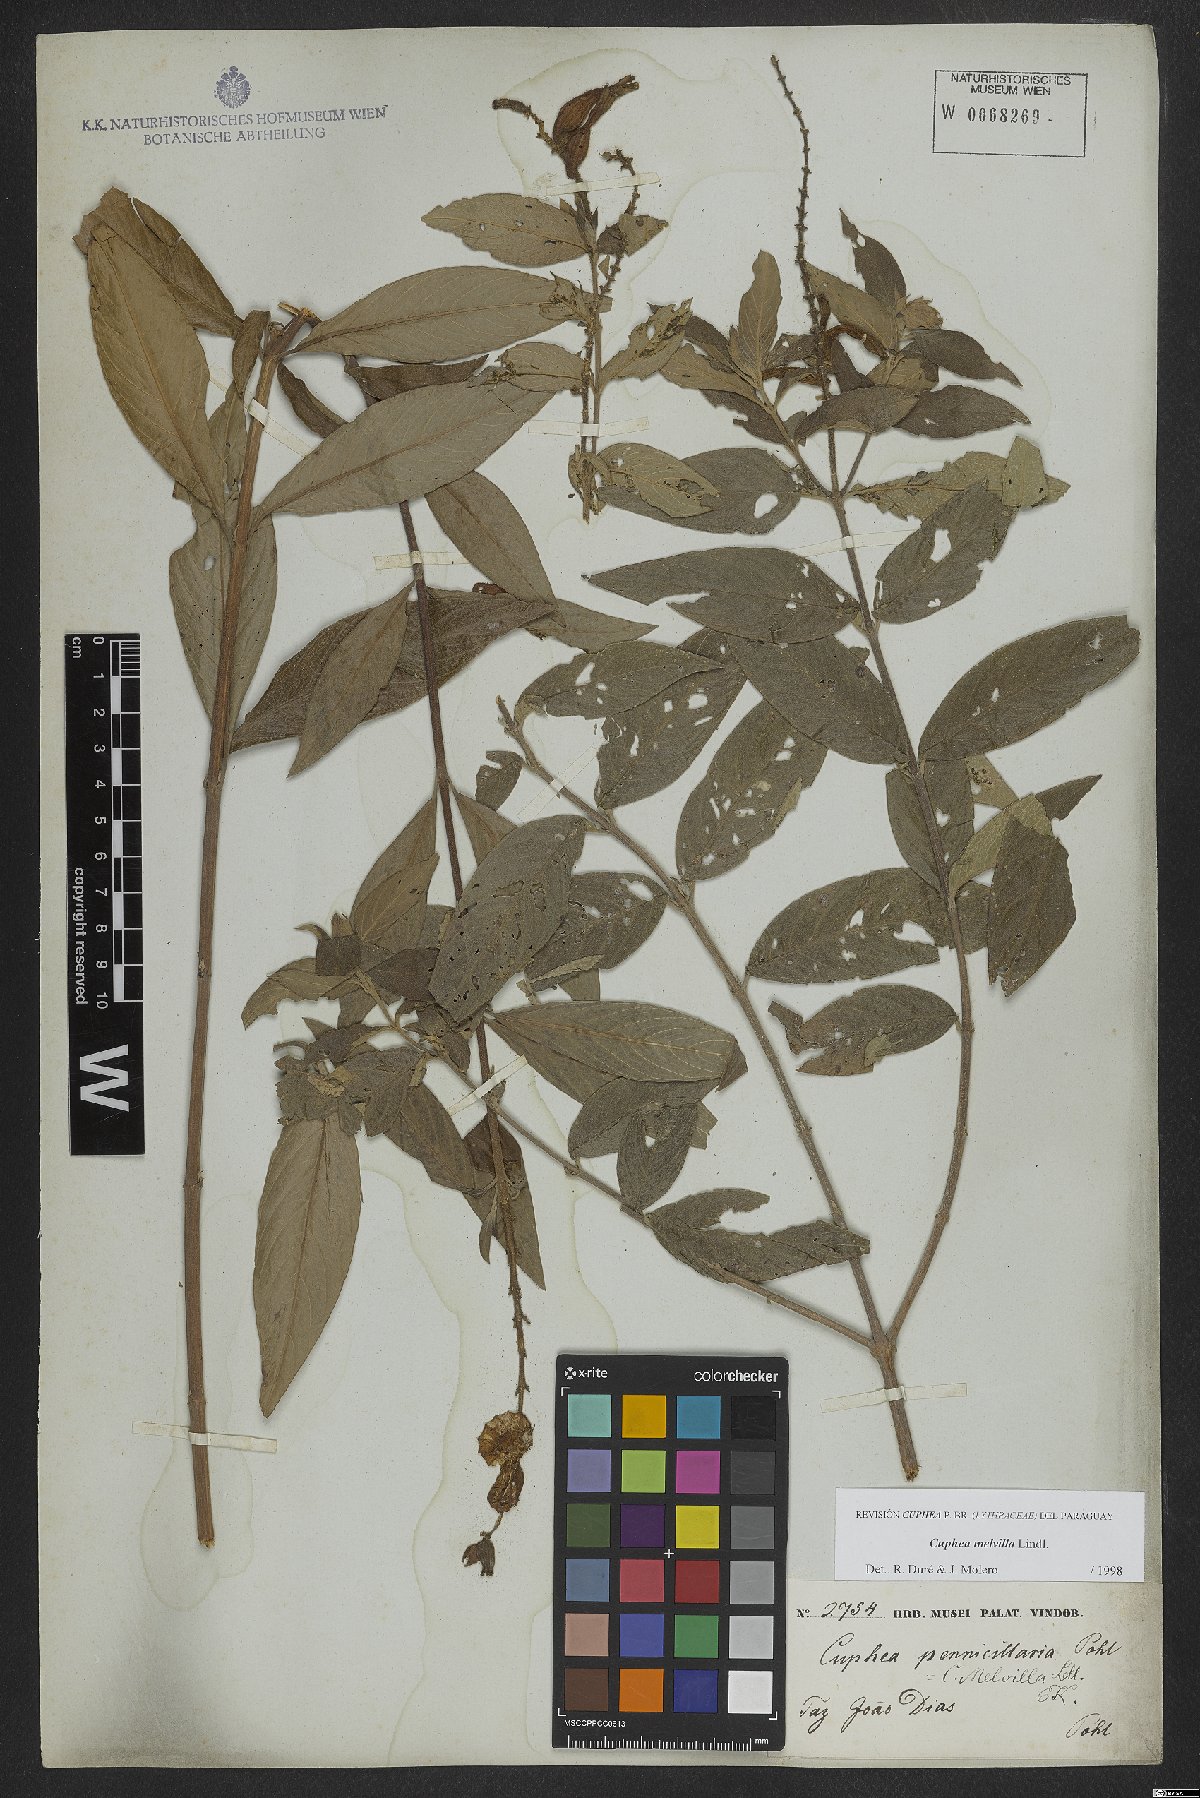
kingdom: Plantae
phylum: Tracheophyta
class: Magnoliopsida
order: Myrtales
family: Lythraceae
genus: Cuphea
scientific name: Cuphea melvilla
